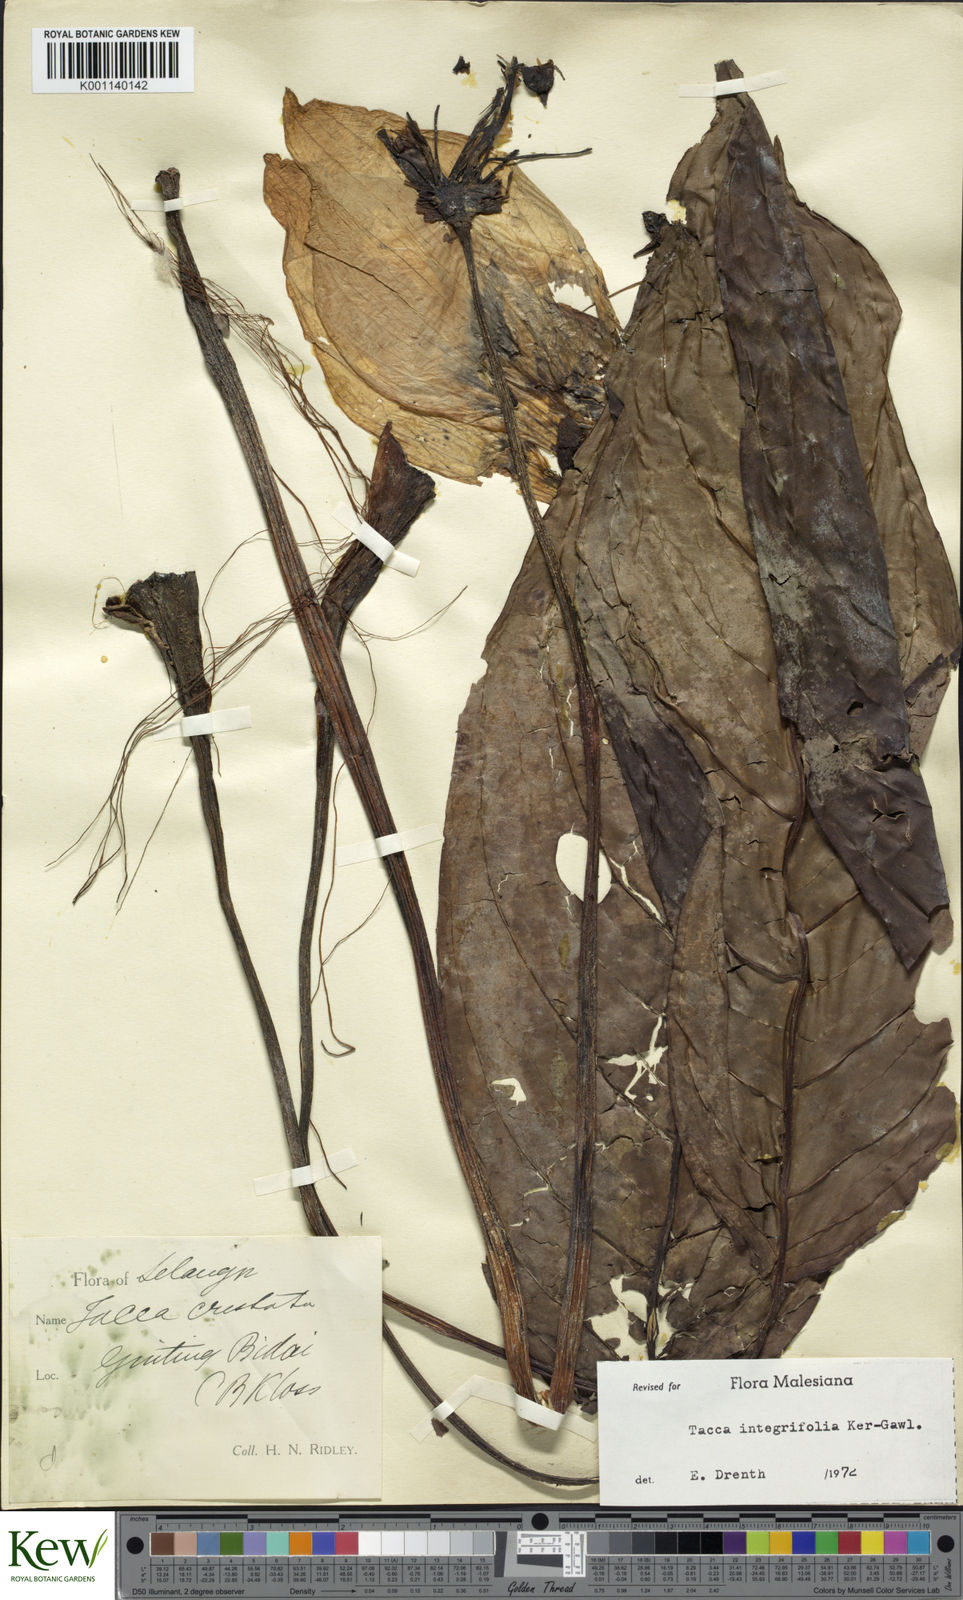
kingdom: Plantae
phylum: Tracheophyta
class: Liliopsida
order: Dioscoreales
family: Dioscoreaceae
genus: Tacca
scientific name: Tacca integrifolia
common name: Batplant
